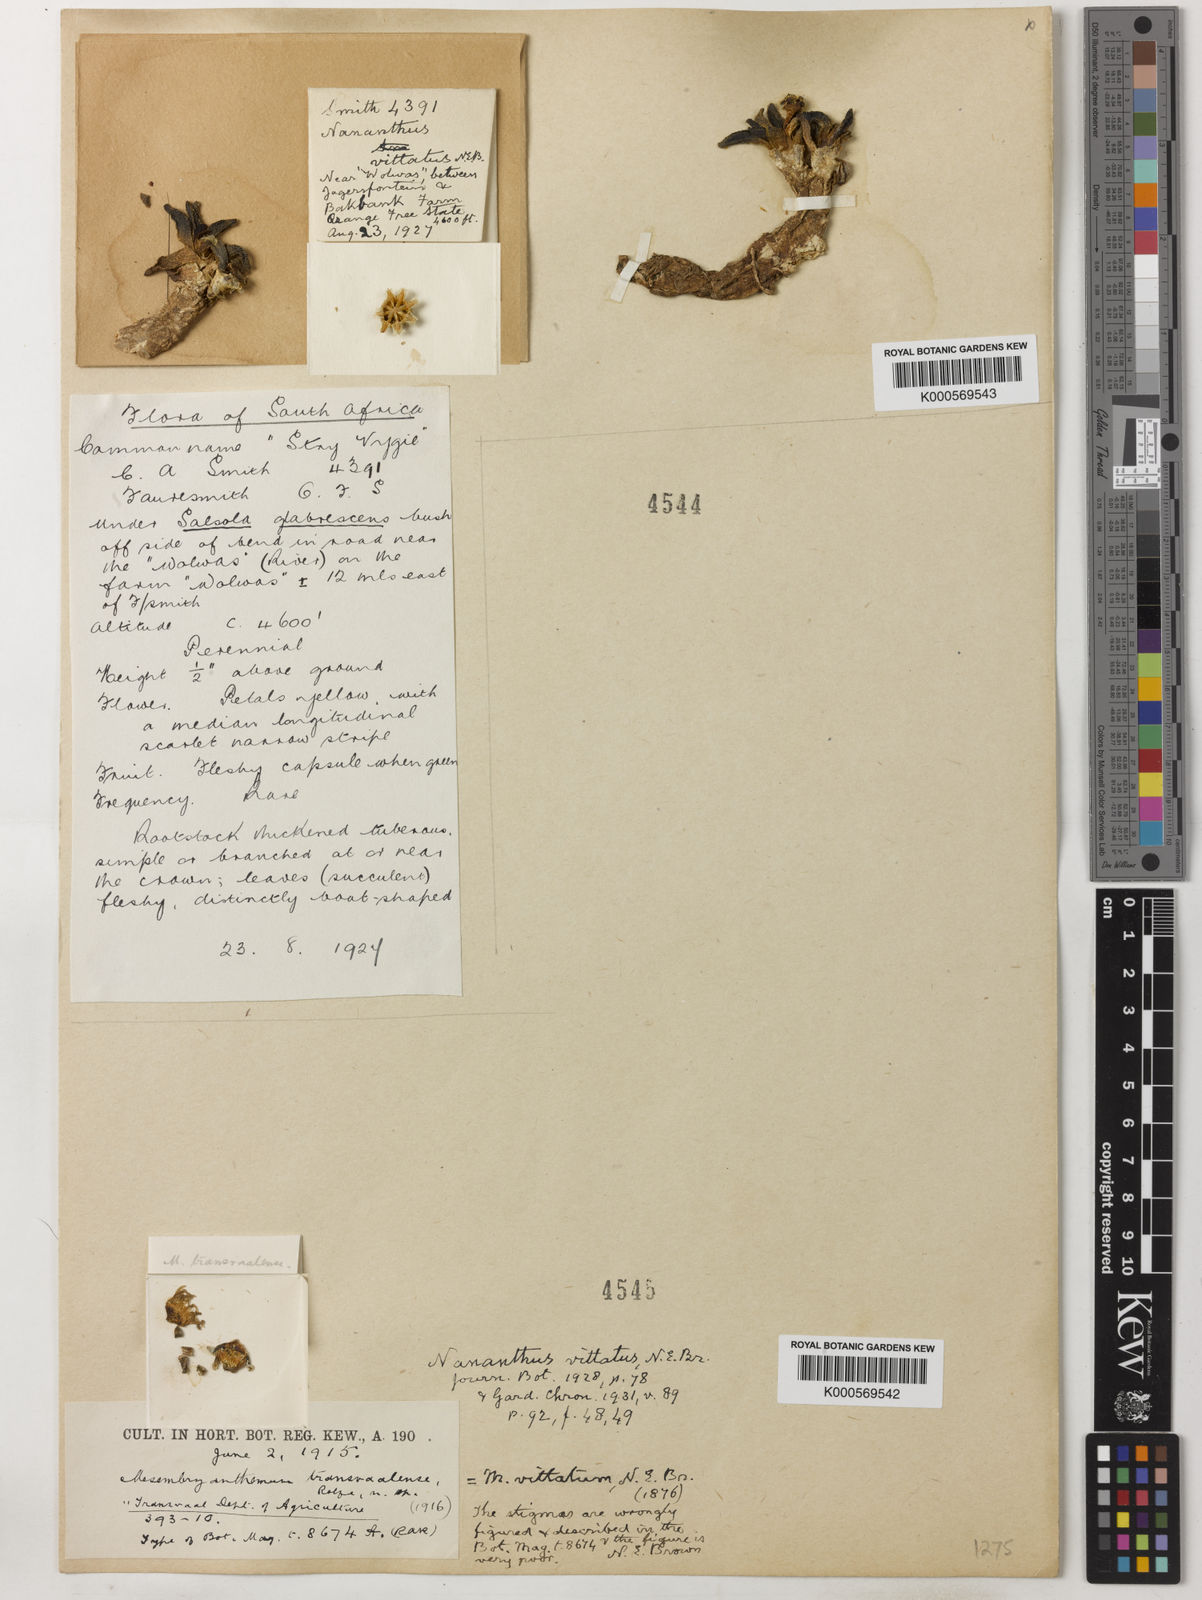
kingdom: Plantae
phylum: Tracheophyta
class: Magnoliopsida
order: Caryophyllales
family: Aizoaceae
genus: Nananthus
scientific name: Nananthus vittatus
